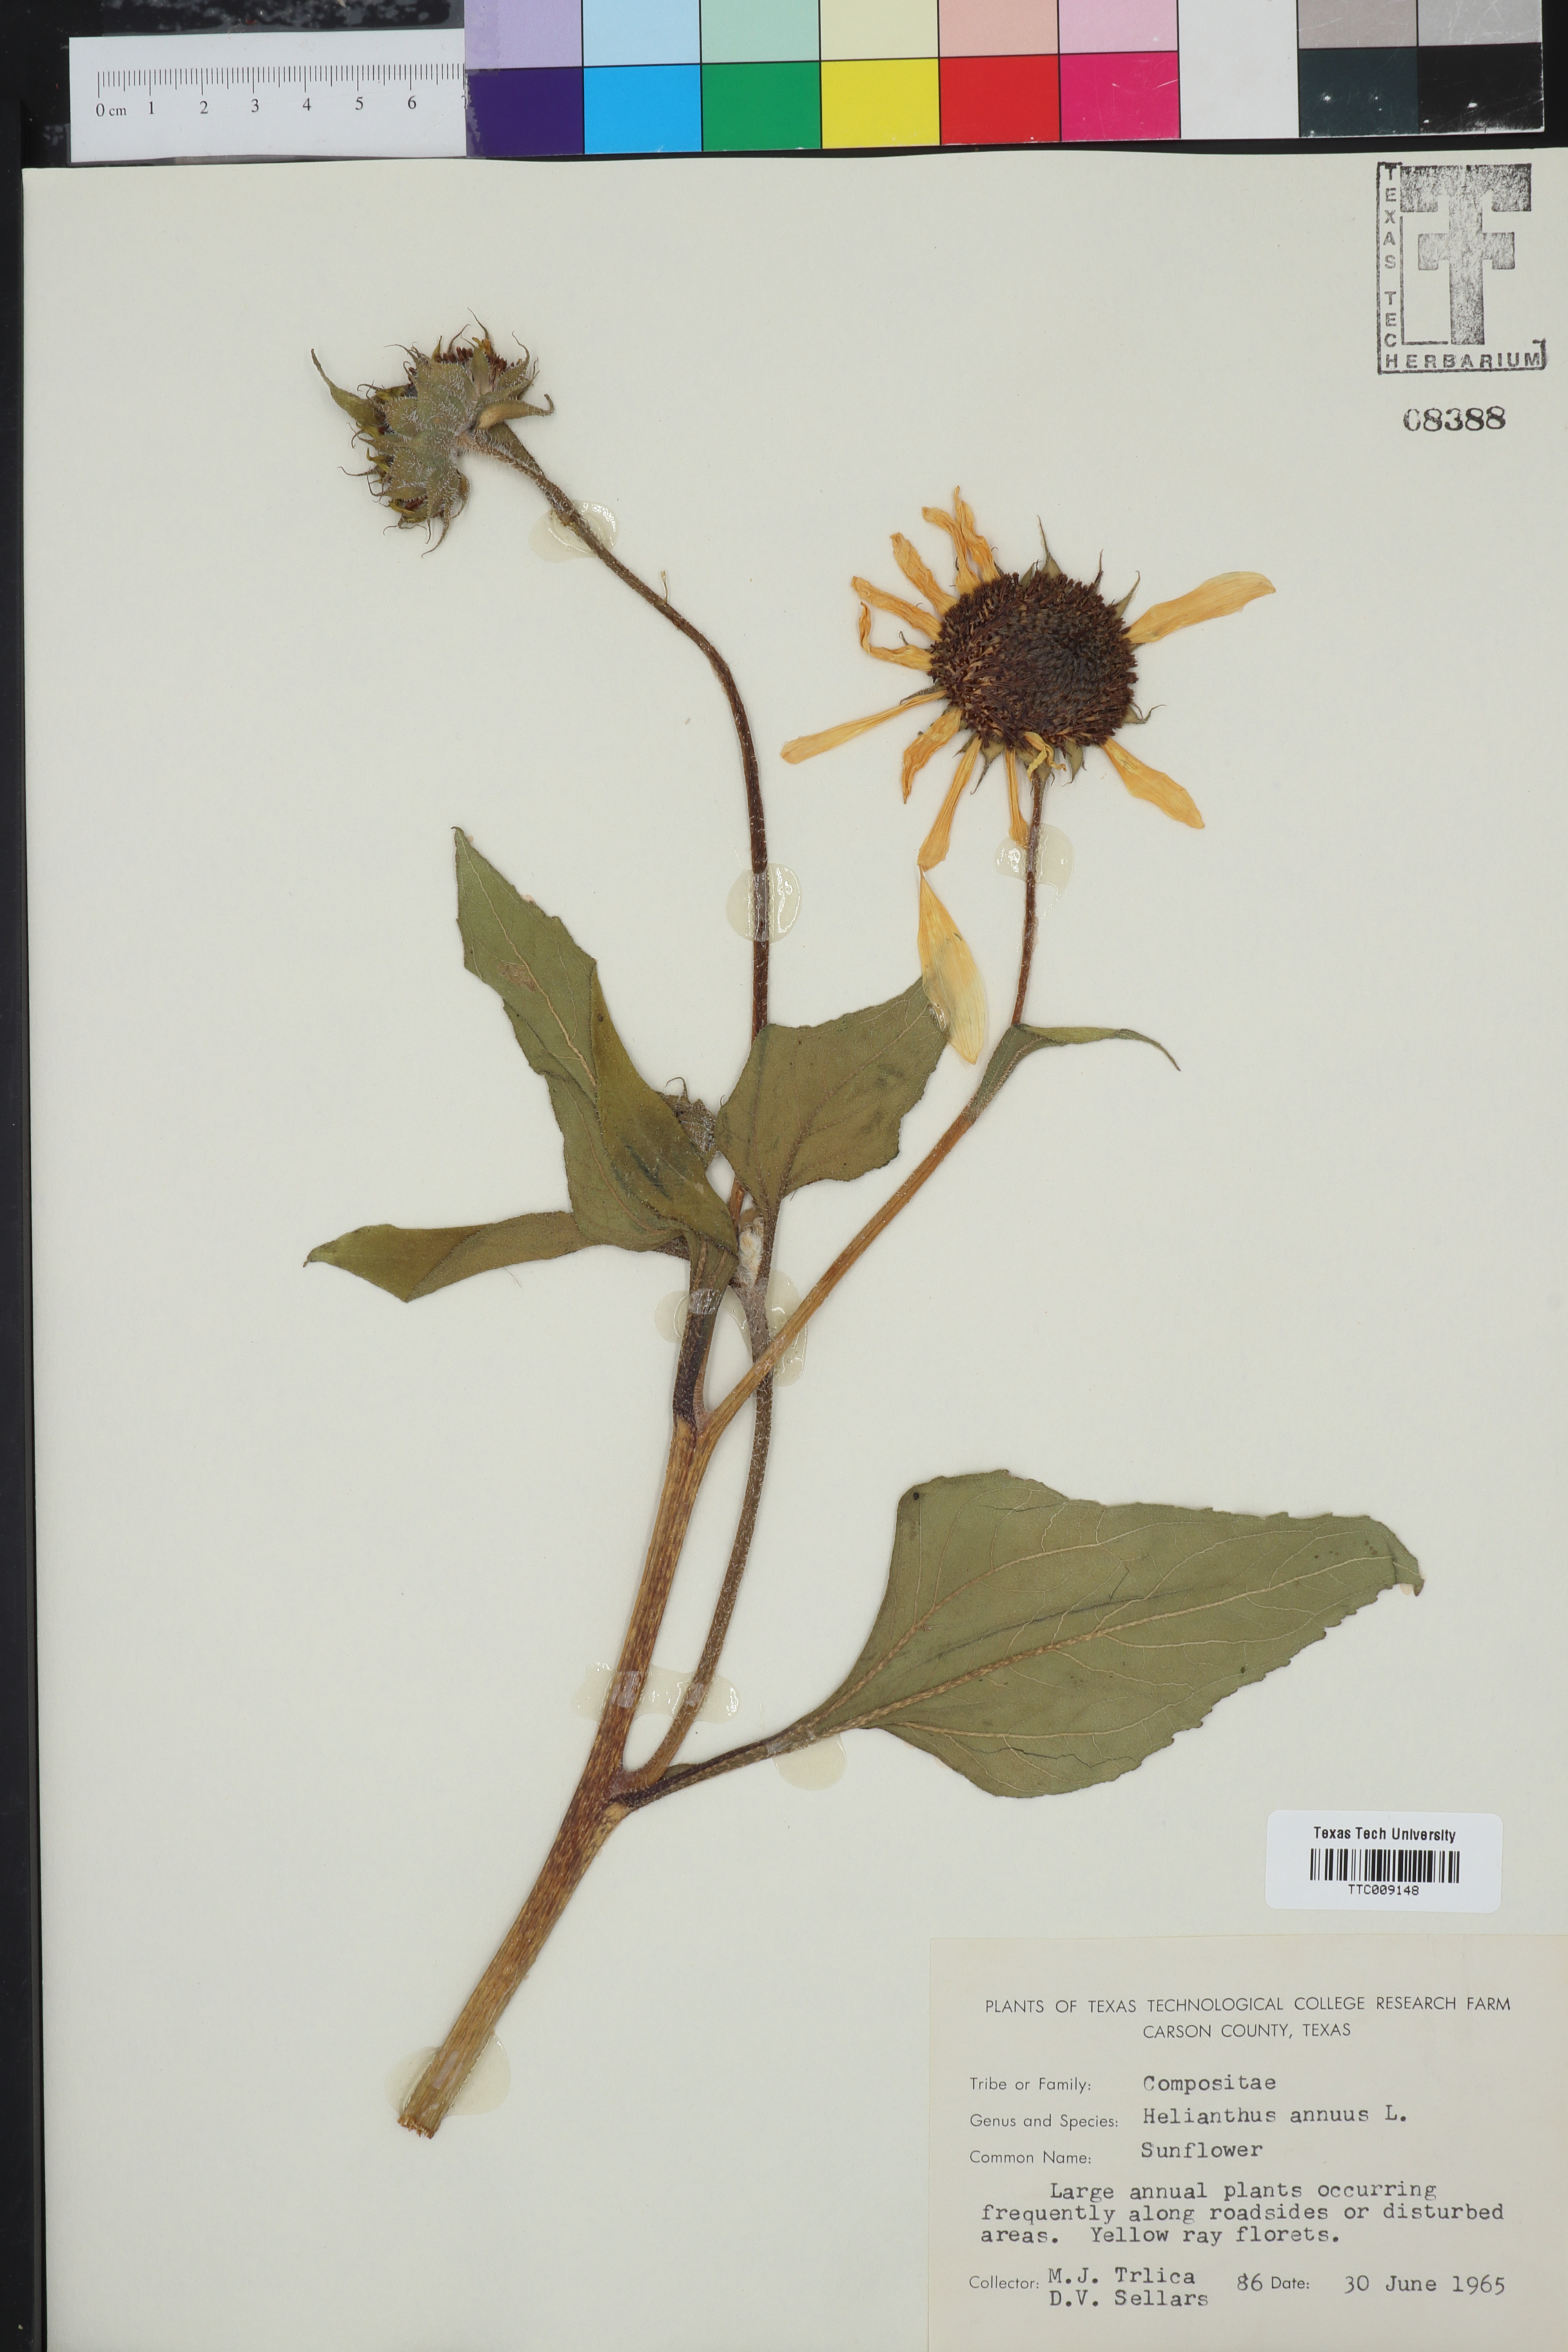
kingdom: Plantae
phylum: Tracheophyta
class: Magnoliopsida
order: Asterales
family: Asteraceae
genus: Helianthus
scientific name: Helianthus annuus
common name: Sunflower
